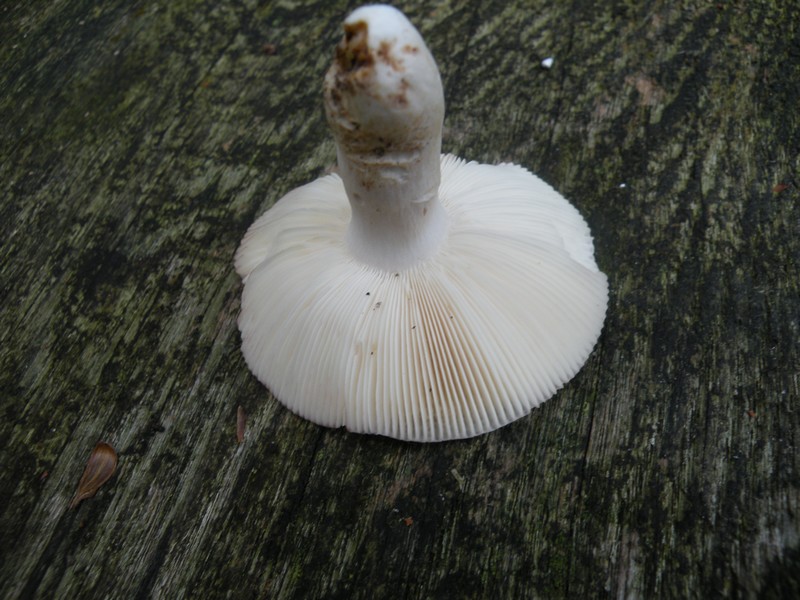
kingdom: Fungi
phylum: Basidiomycota
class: Agaricomycetes
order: Russulales
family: Russulaceae
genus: Russula
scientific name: Russula ionochlora
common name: violetgrøn skørhat
